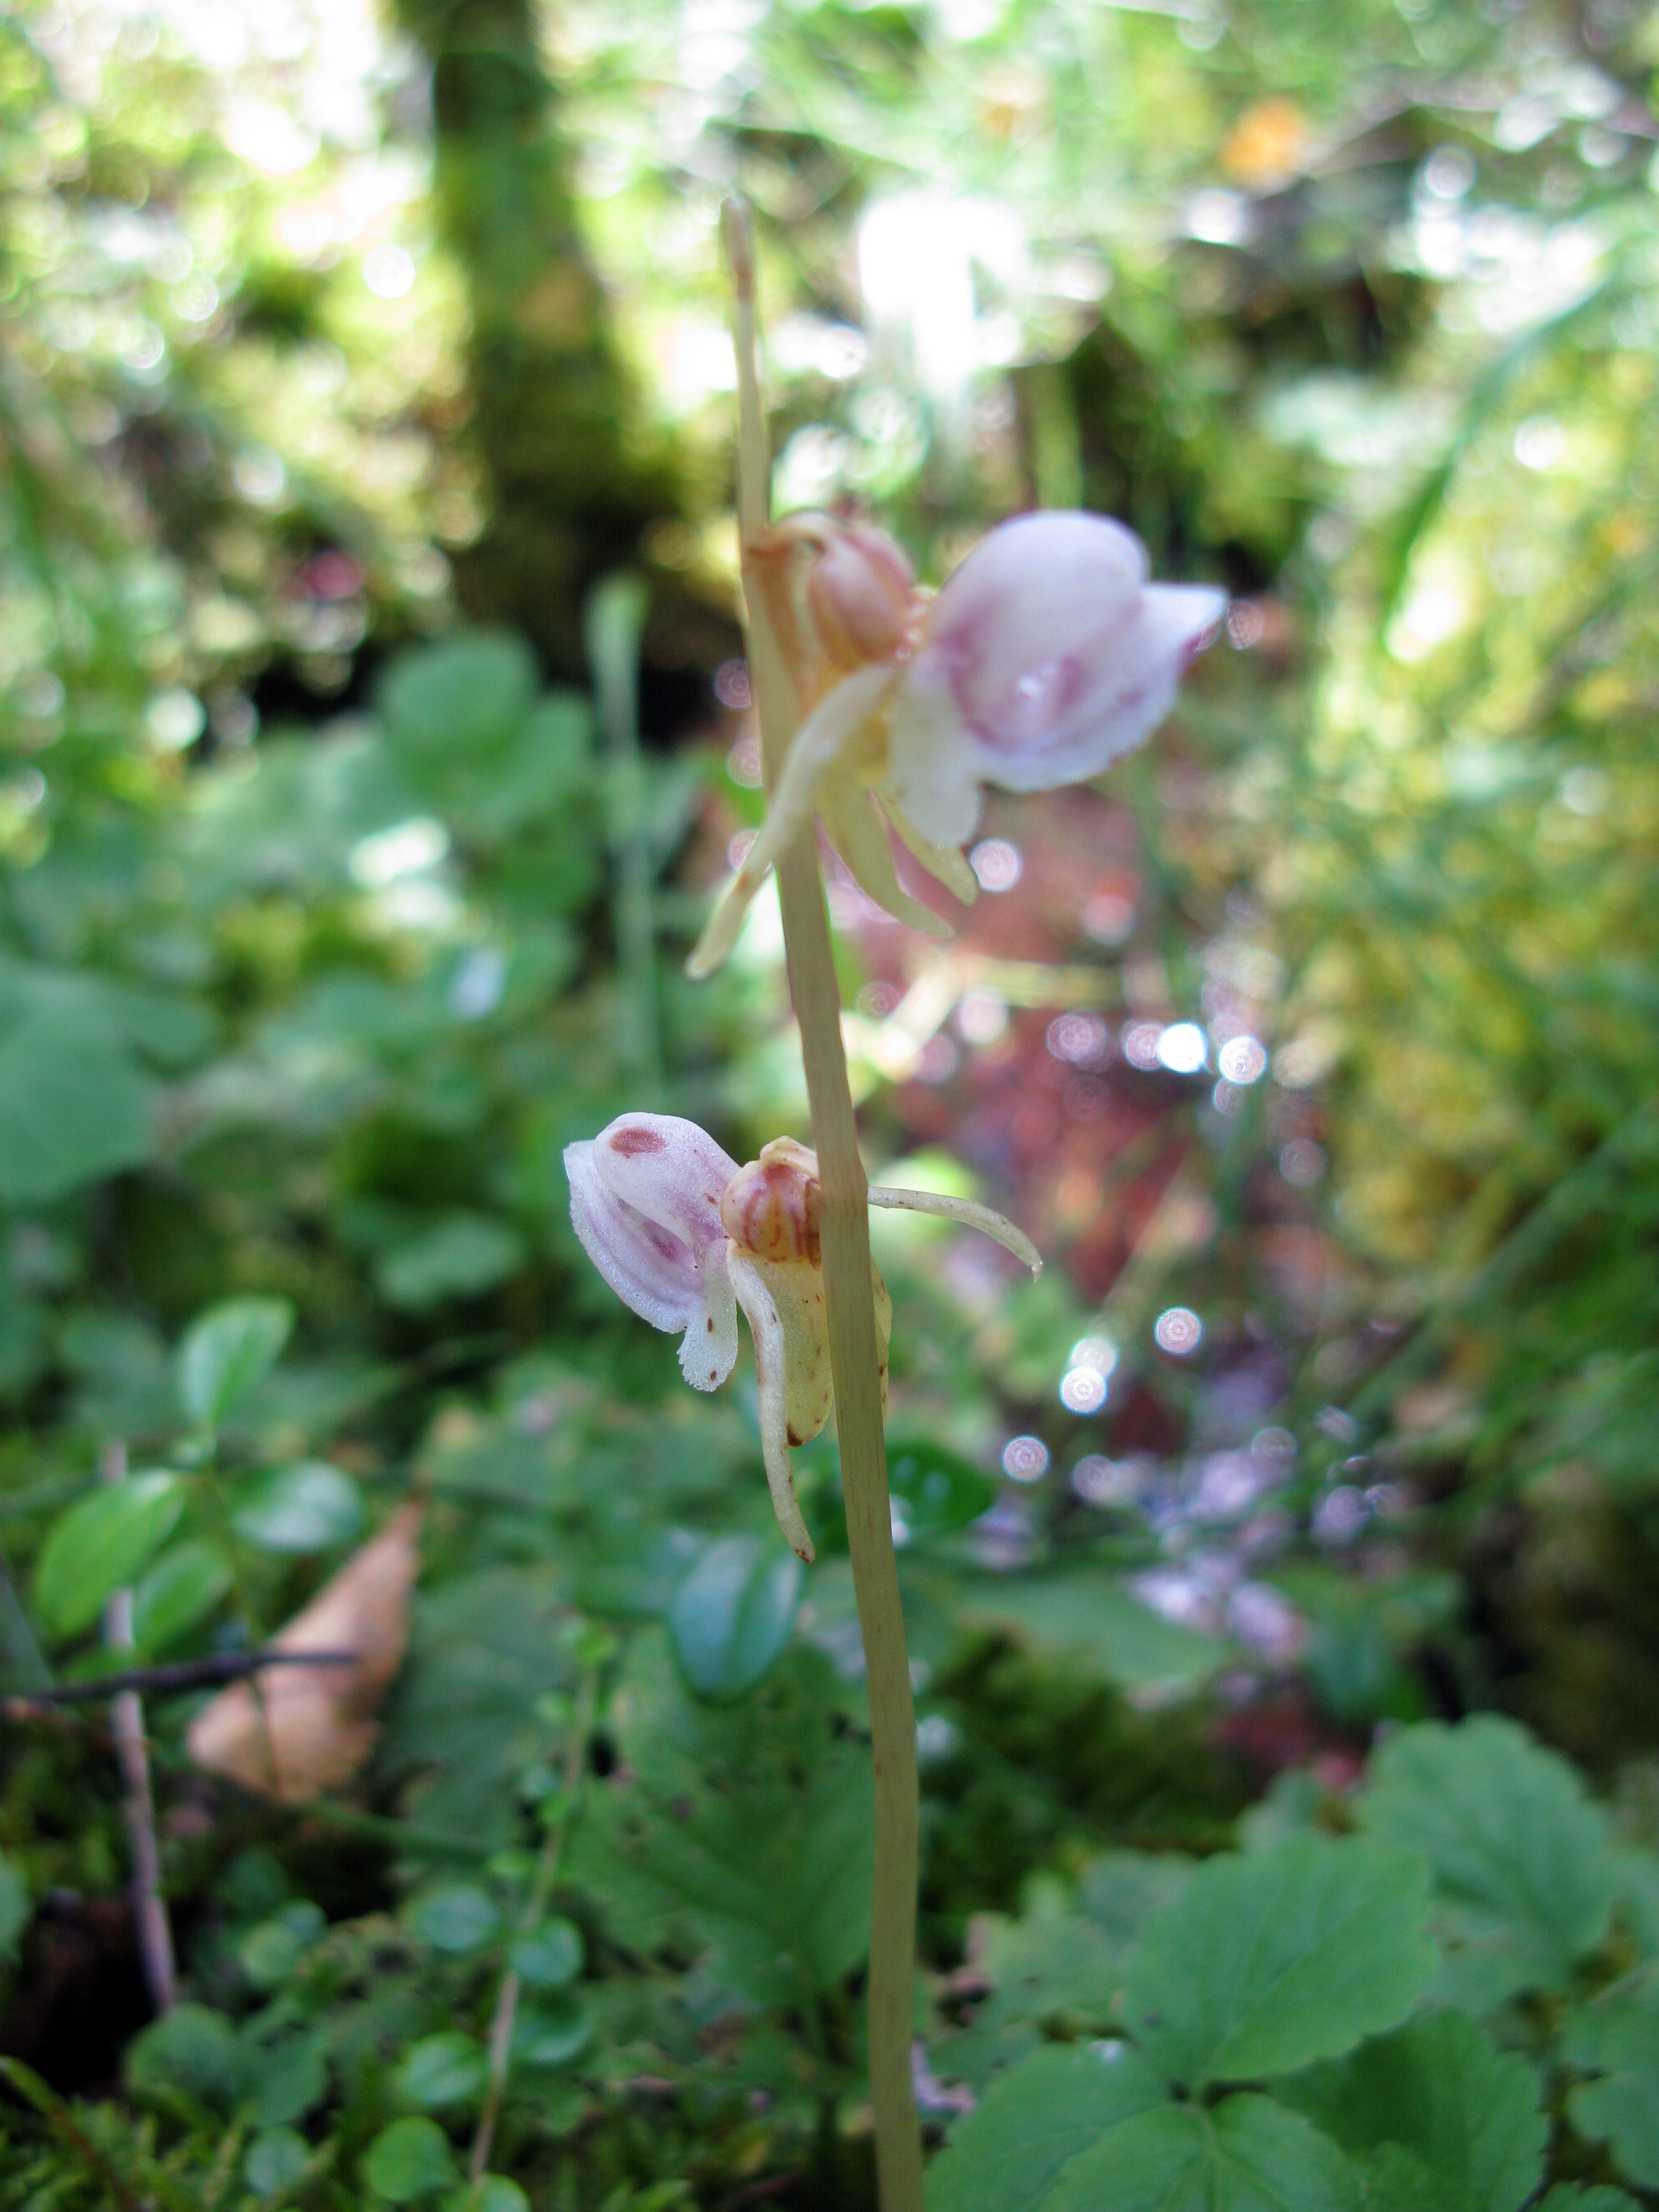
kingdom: Plantae
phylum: Tracheophyta
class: Liliopsida
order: Asparagales
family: Orchidaceae
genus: Epipogium
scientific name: Epipogium aphyllum
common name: Ghost orchid
